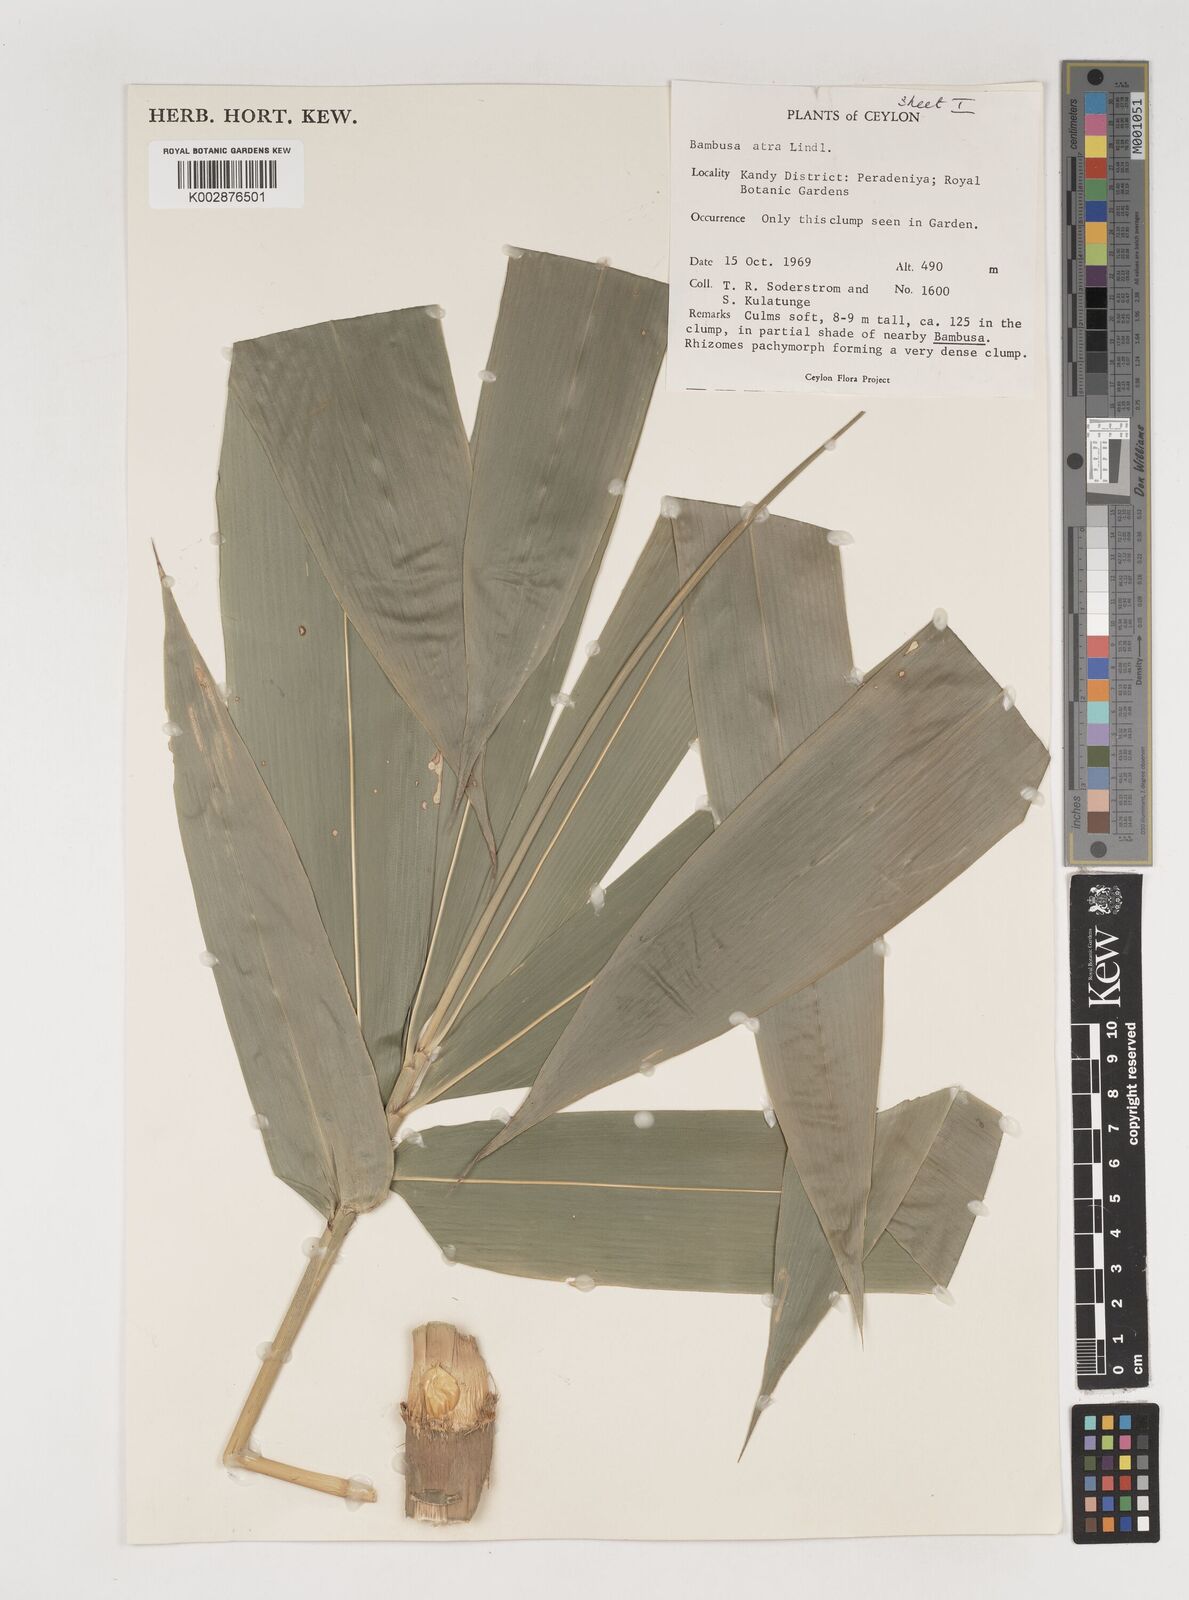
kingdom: Plantae
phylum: Tracheophyta
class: Liliopsida
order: Poales
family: Poaceae
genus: Bambusa
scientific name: Bambusa
